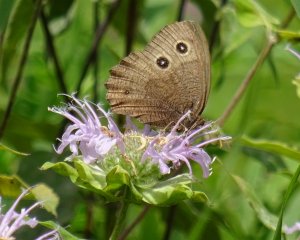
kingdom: Animalia
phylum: Arthropoda
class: Insecta
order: Lepidoptera
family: Nymphalidae
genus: Cercyonis
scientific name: Cercyonis pegala
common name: Common Wood-Nymph
